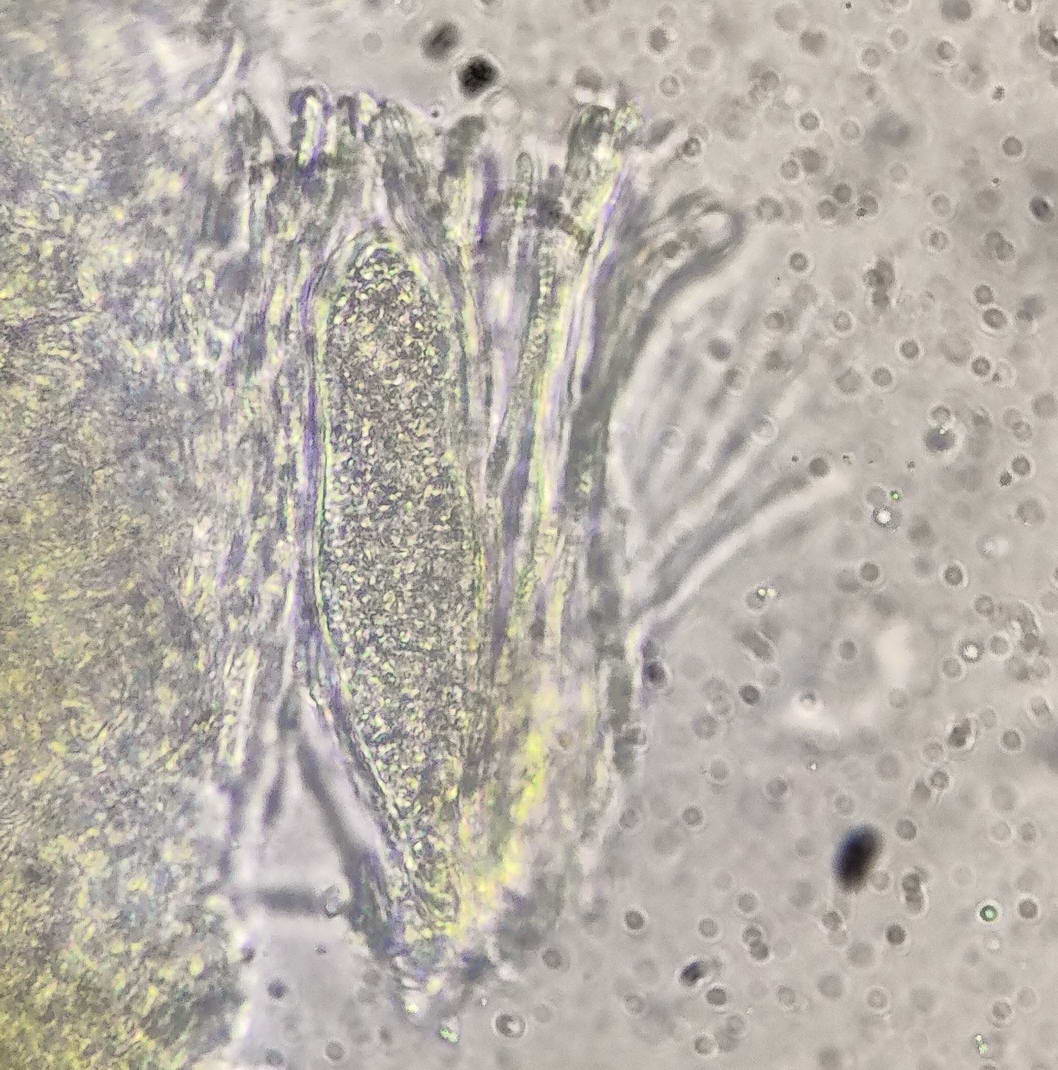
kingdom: Fungi
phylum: Ascomycota
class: Sareomycetes
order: Sareales
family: Sareaceae
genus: Sarea
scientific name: Sarea resinae
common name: orangegul harpiksskive
